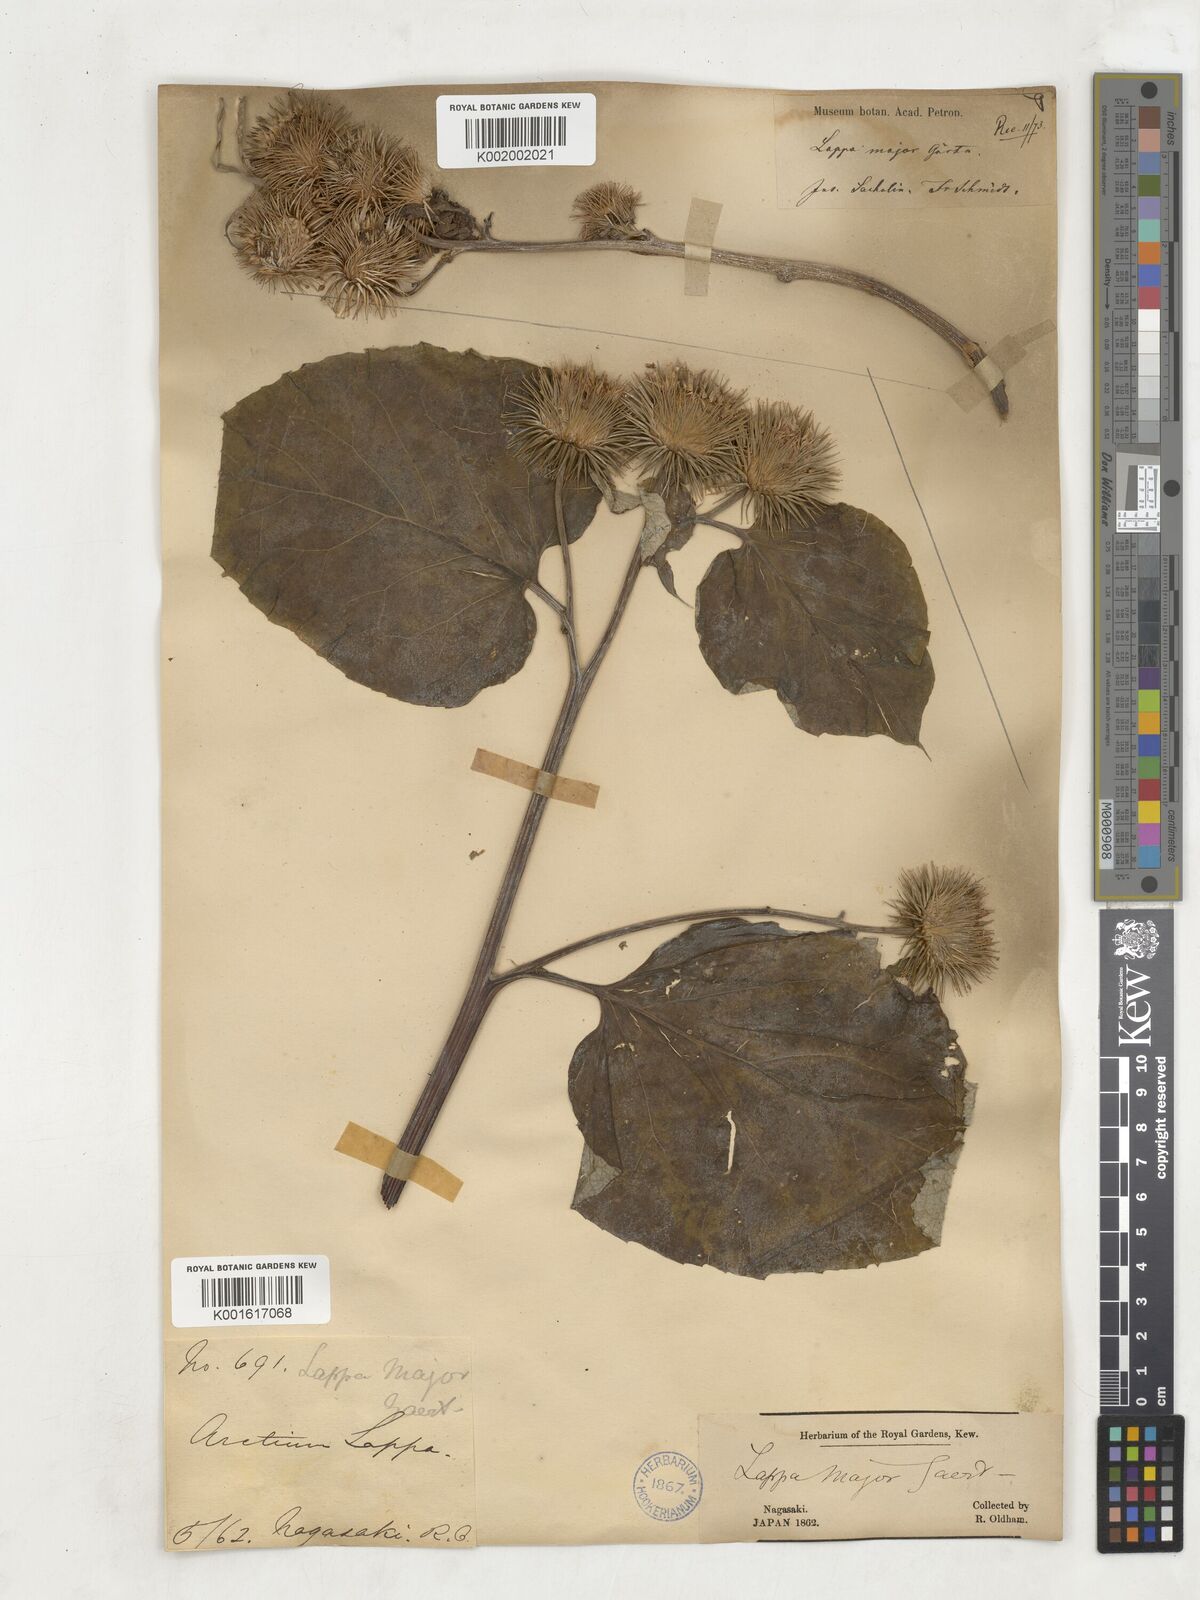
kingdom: Plantae
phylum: Tracheophyta
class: Magnoliopsida
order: Asterales
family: Asteraceae
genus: Arctium
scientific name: Arctium lappa
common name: Greater burdock
